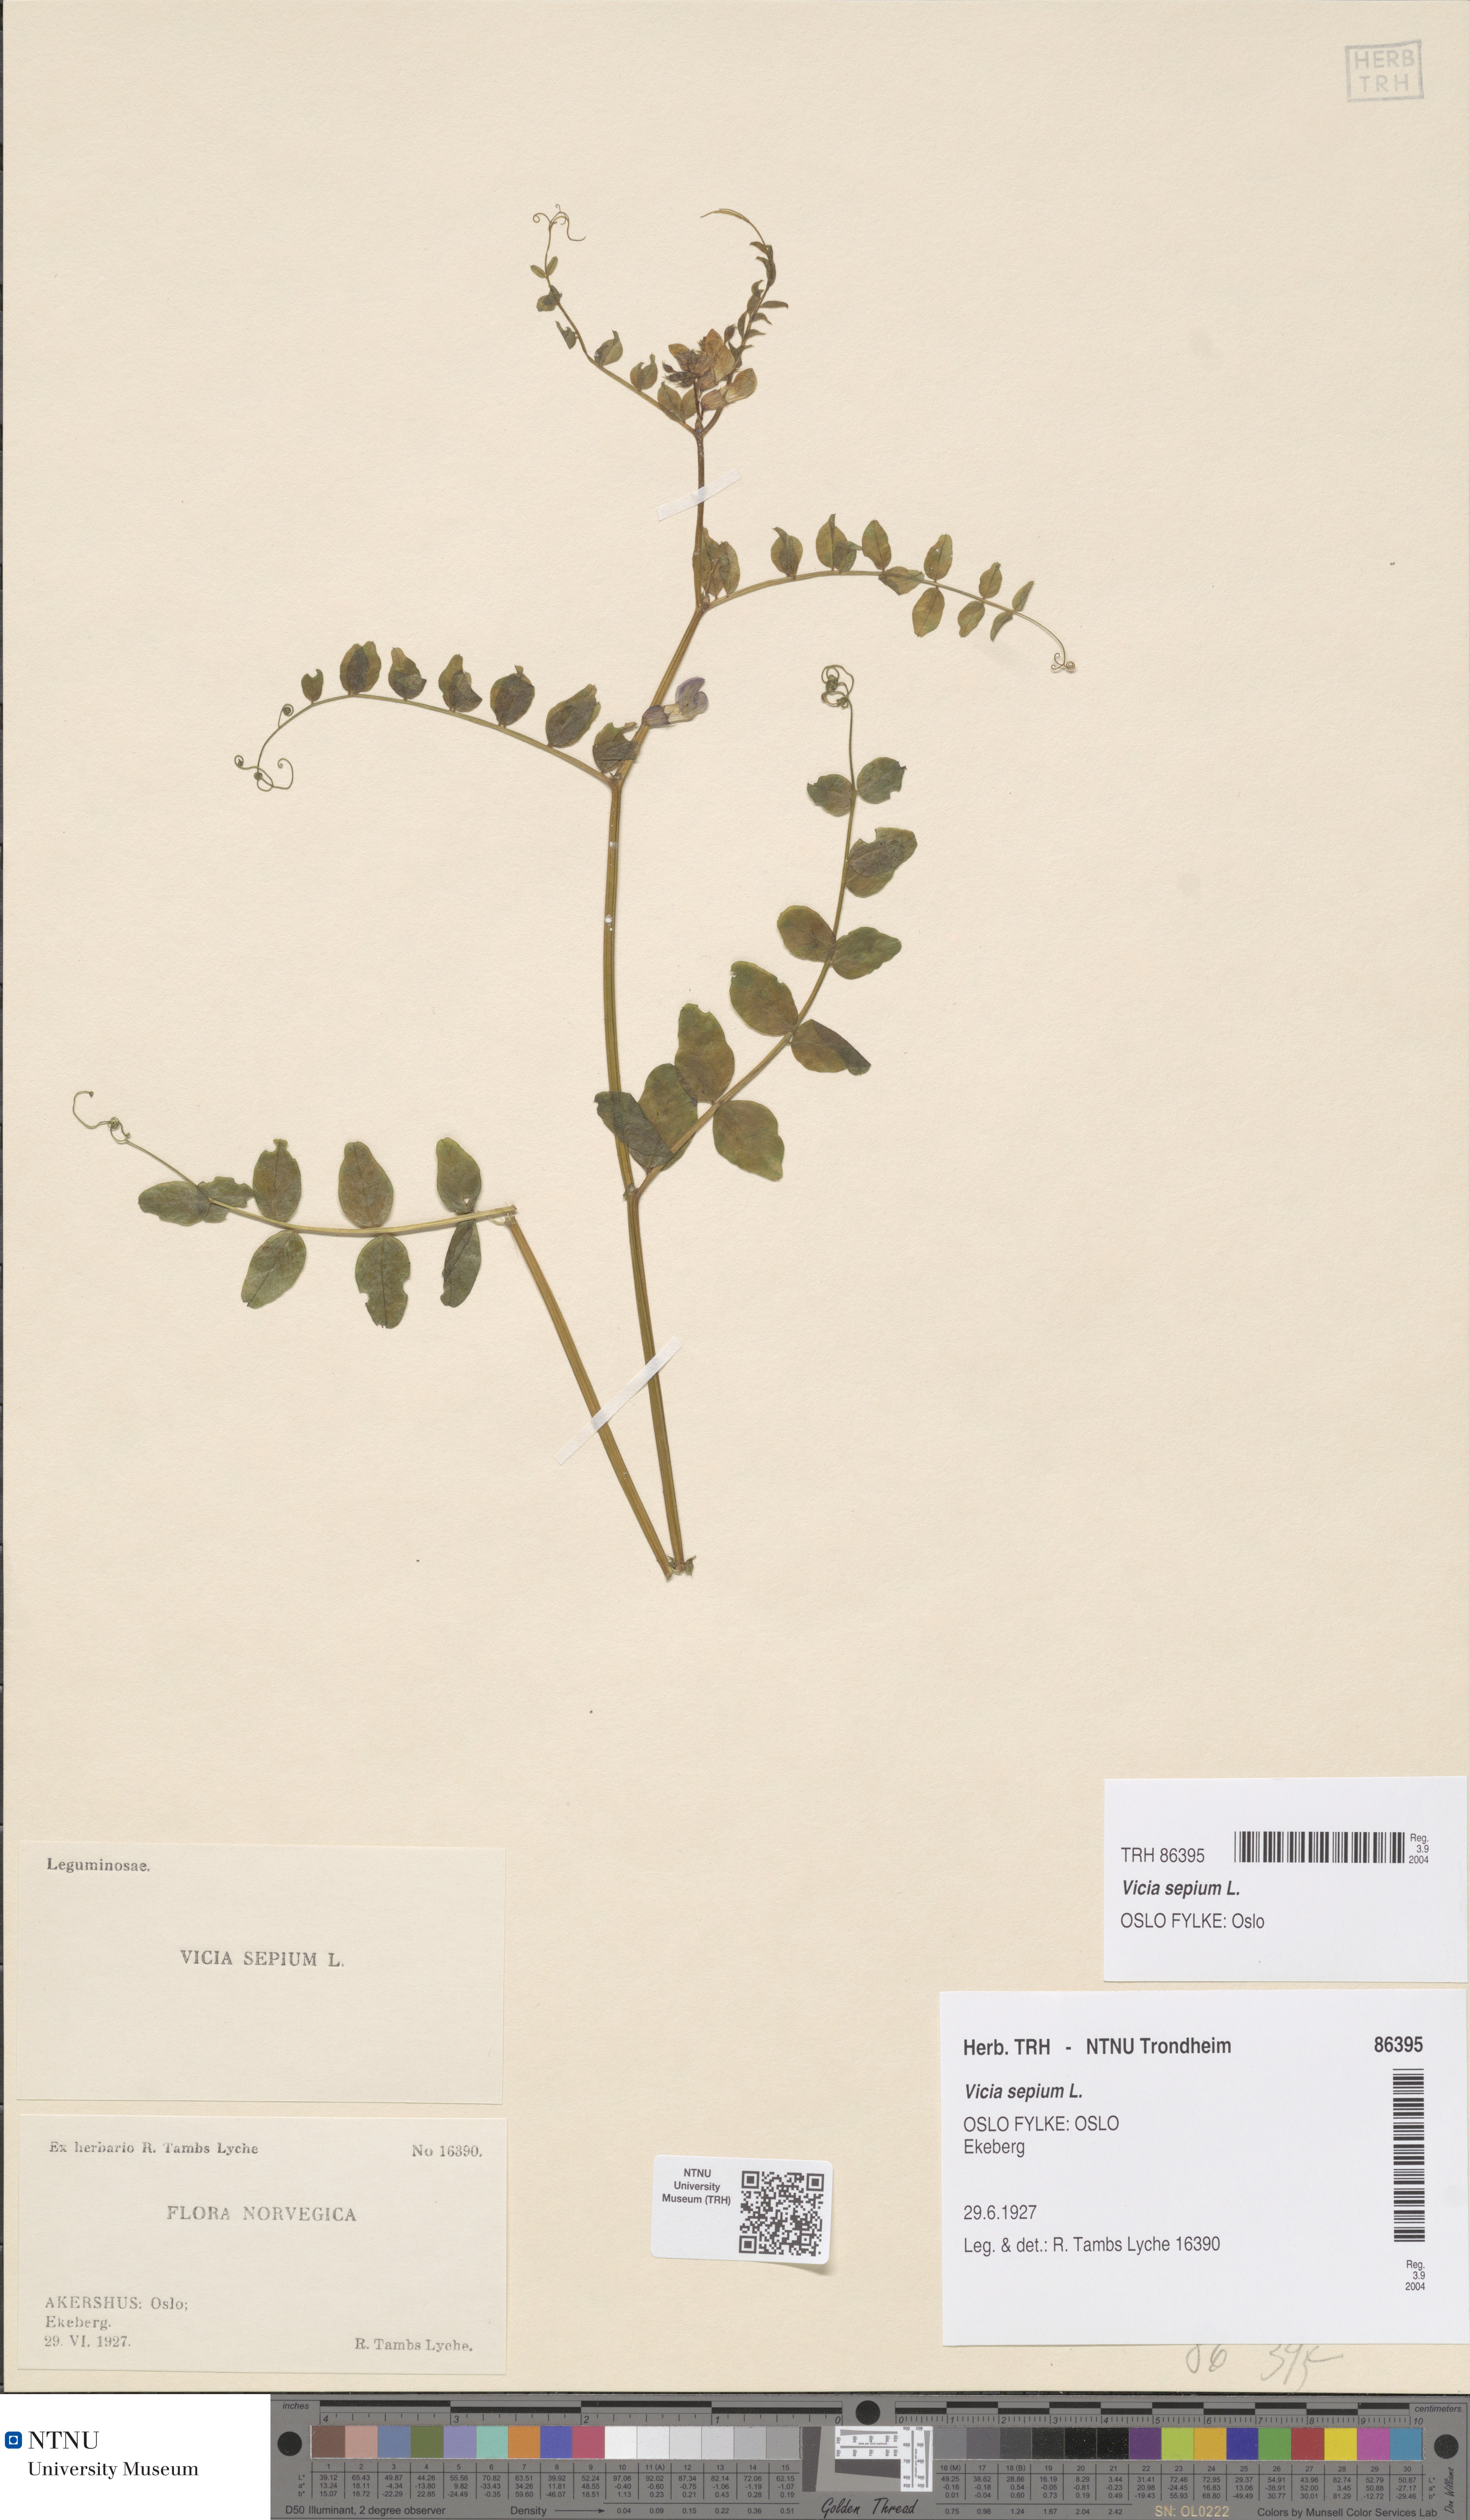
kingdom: Plantae
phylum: Tracheophyta
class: Magnoliopsida
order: Fabales
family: Fabaceae
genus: Vicia
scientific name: Vicia sepium
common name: Bush vetch
